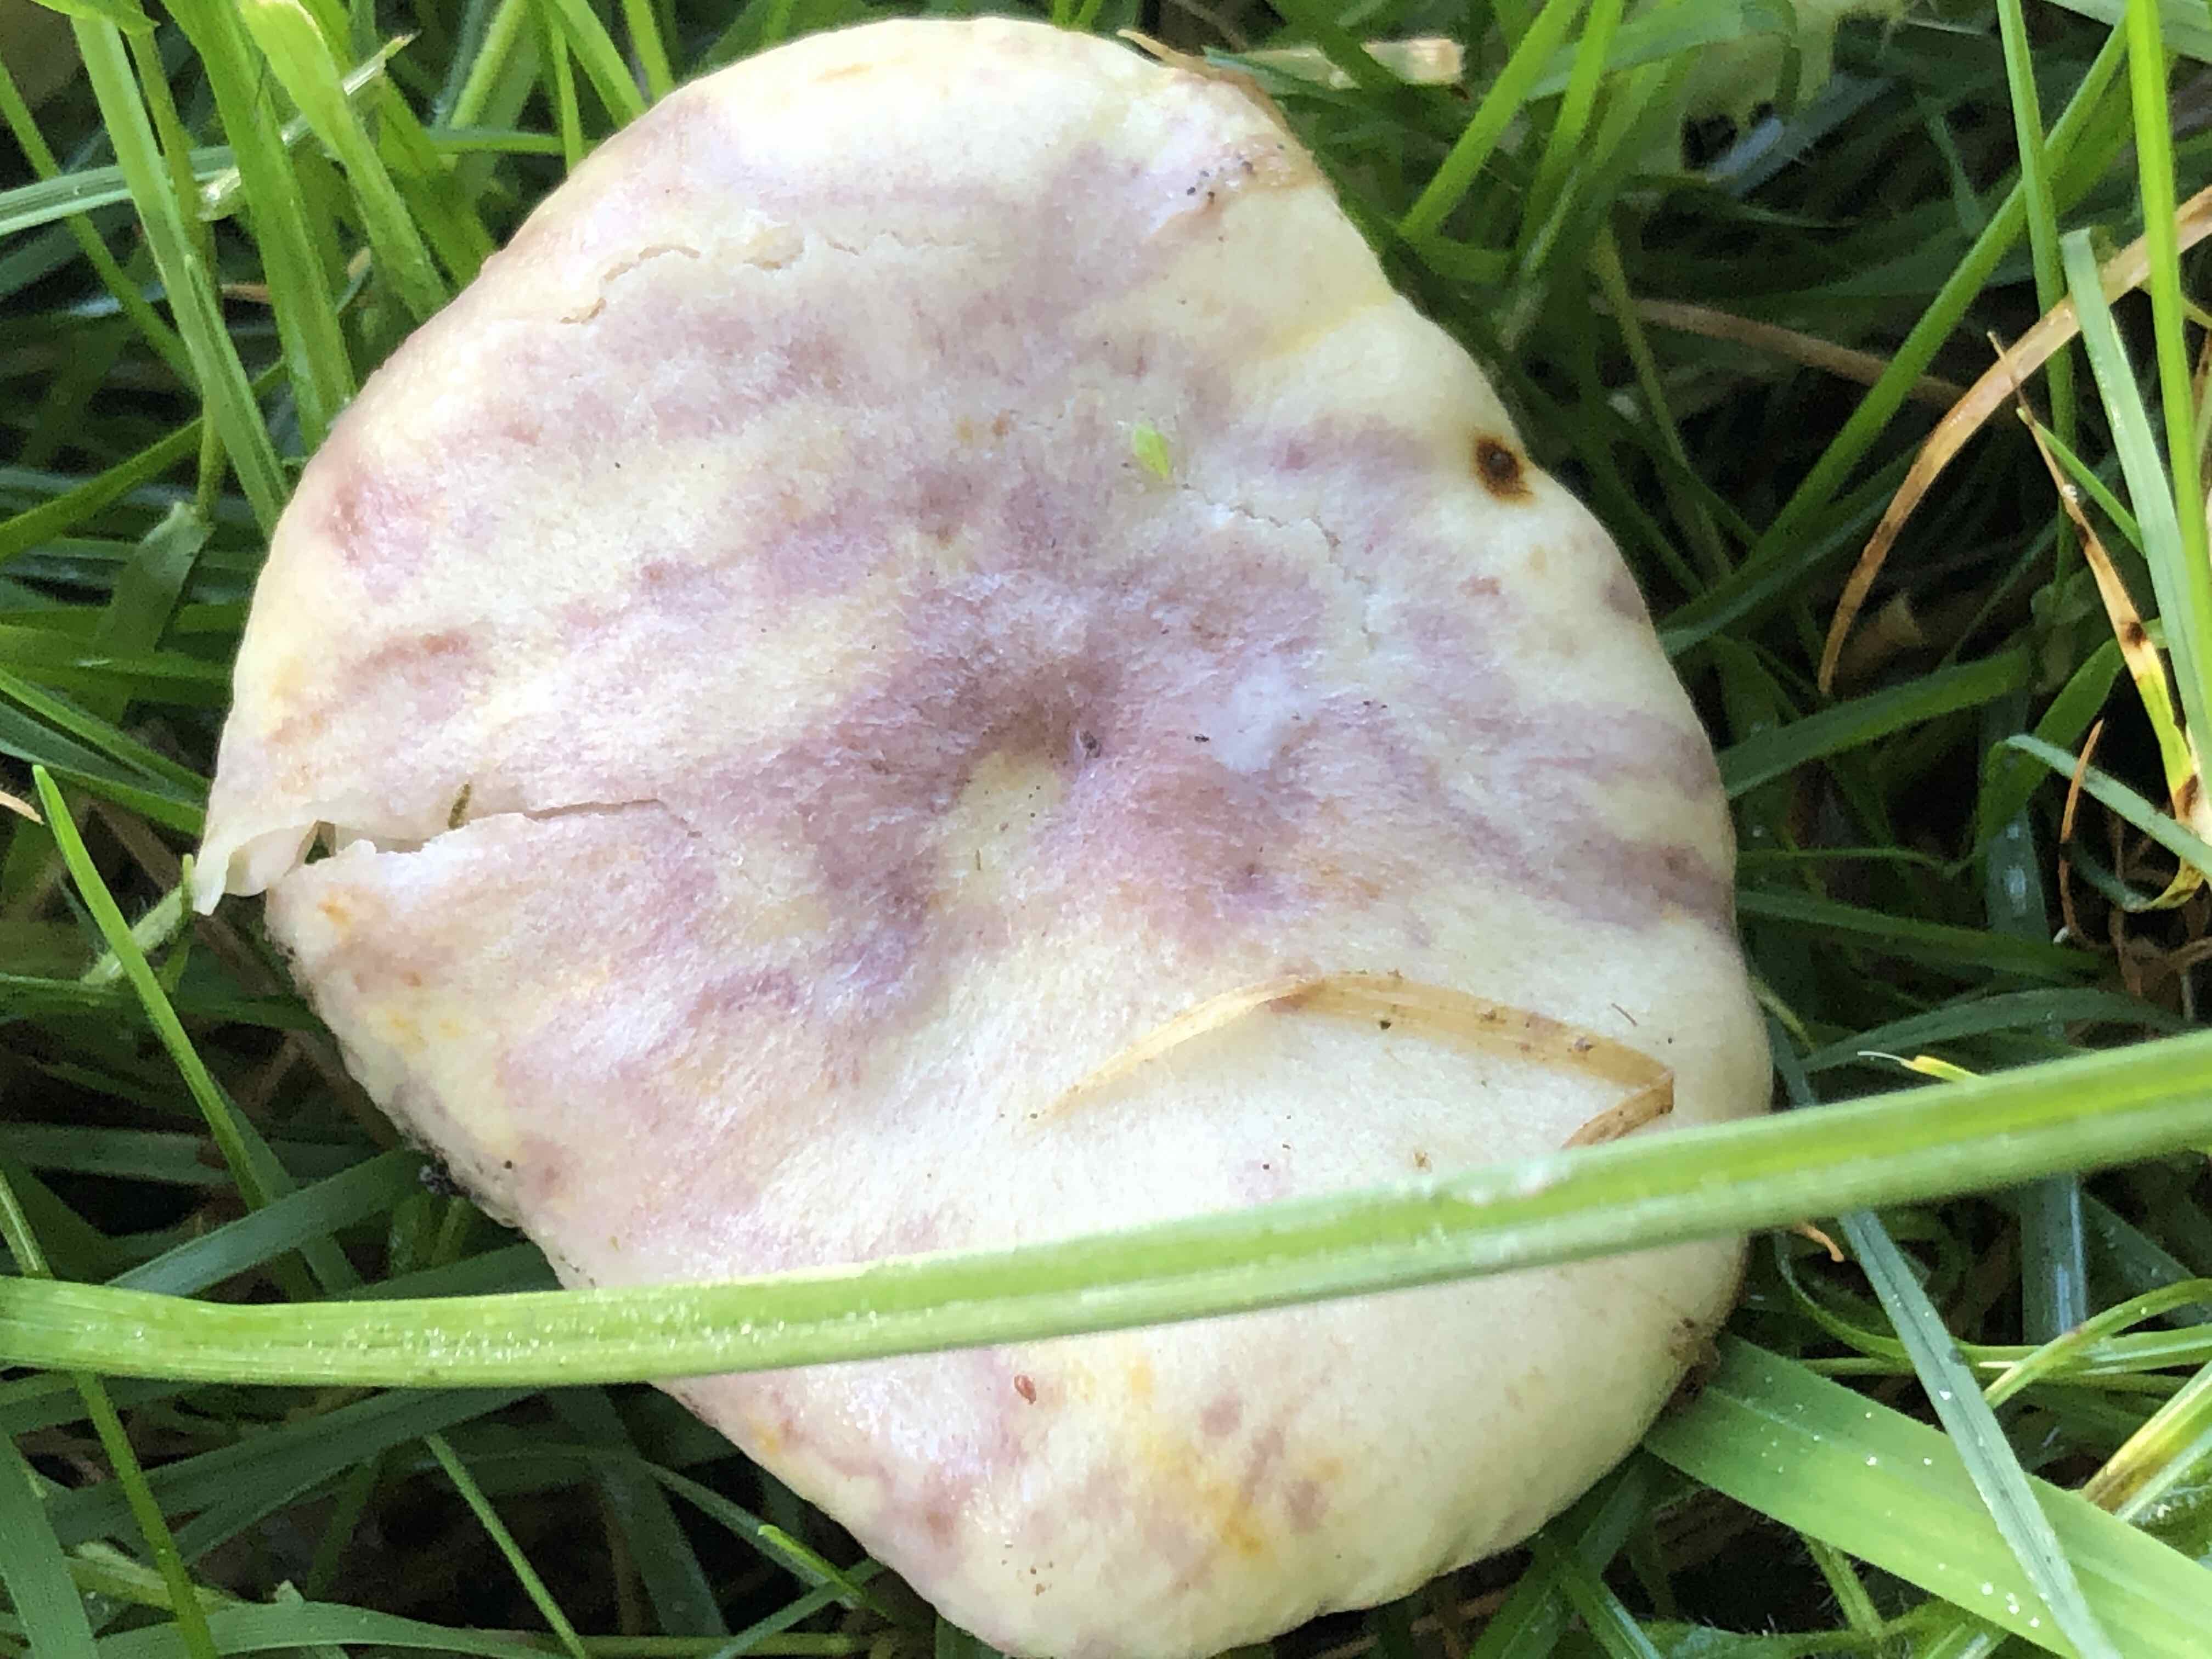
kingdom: Fungi
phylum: Basidiomycota
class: Agaricomycetes
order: Russulales
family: Russulaceae
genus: Lactarius
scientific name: Lactarius uvidus
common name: violetkødet mælkehat
